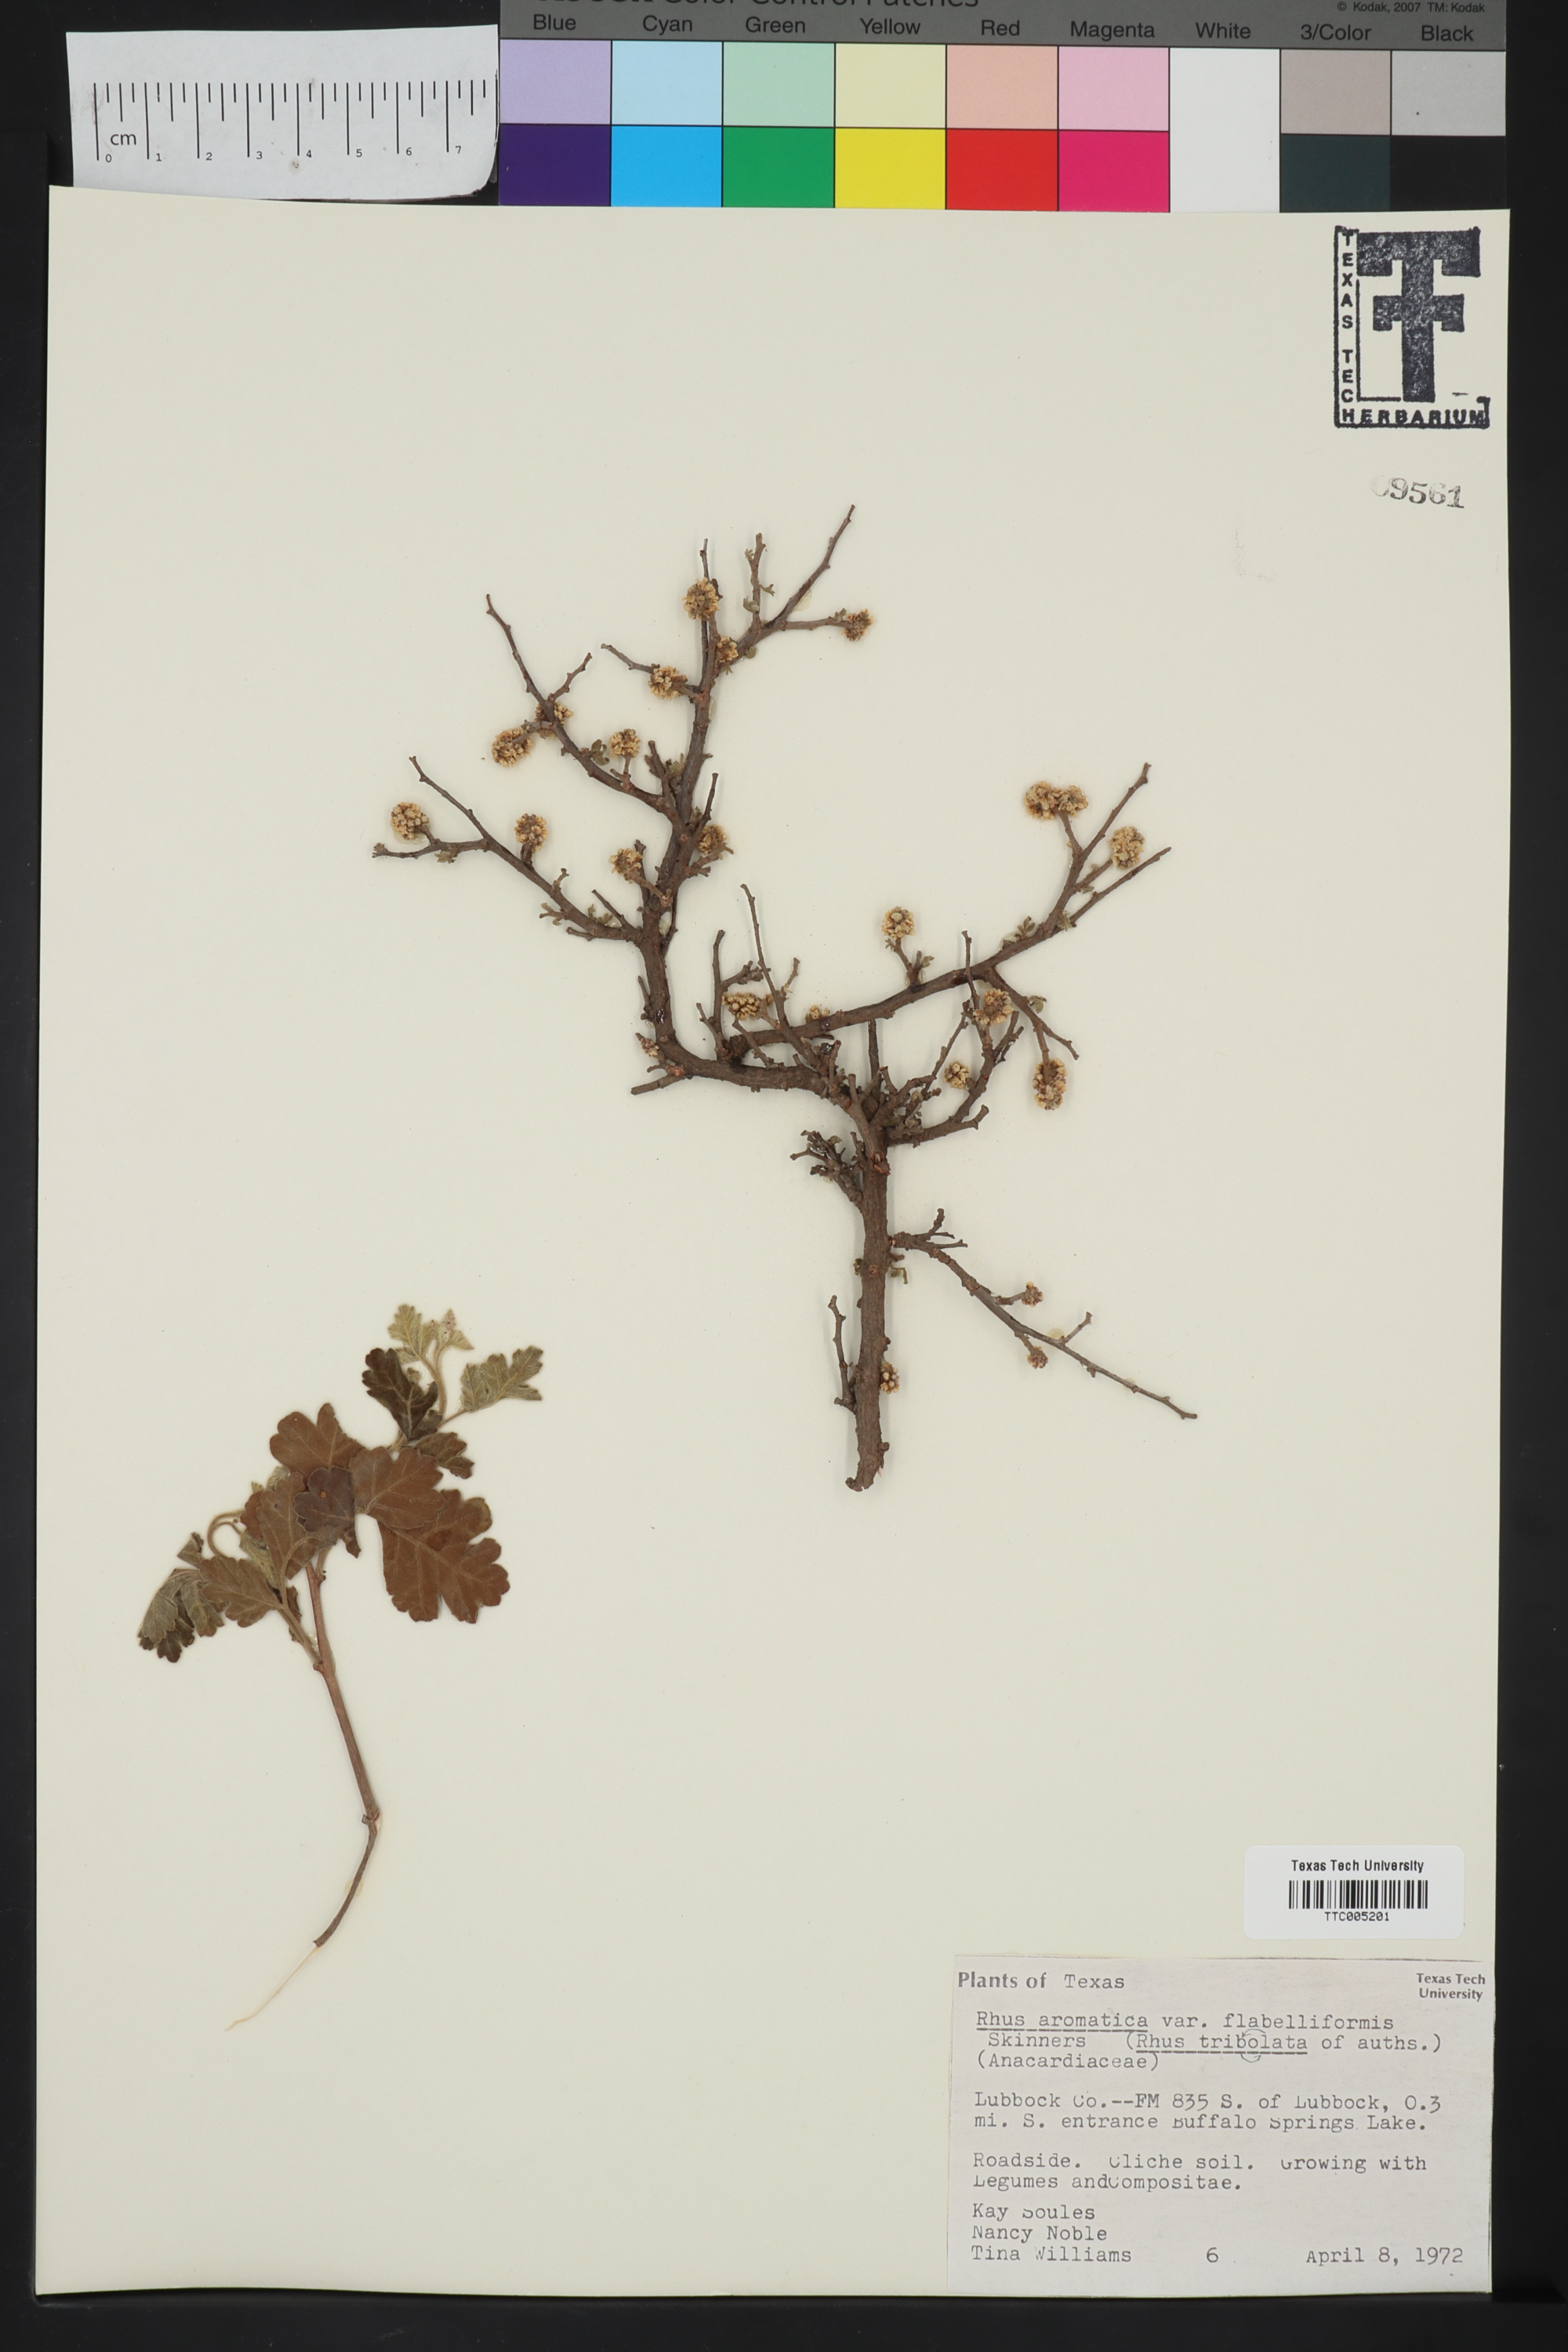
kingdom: Plantae
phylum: Tracheophyta
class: Magnoliopsida
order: Sapindales
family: Anacardiaceae
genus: Rhus
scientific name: Rhus trilobata
